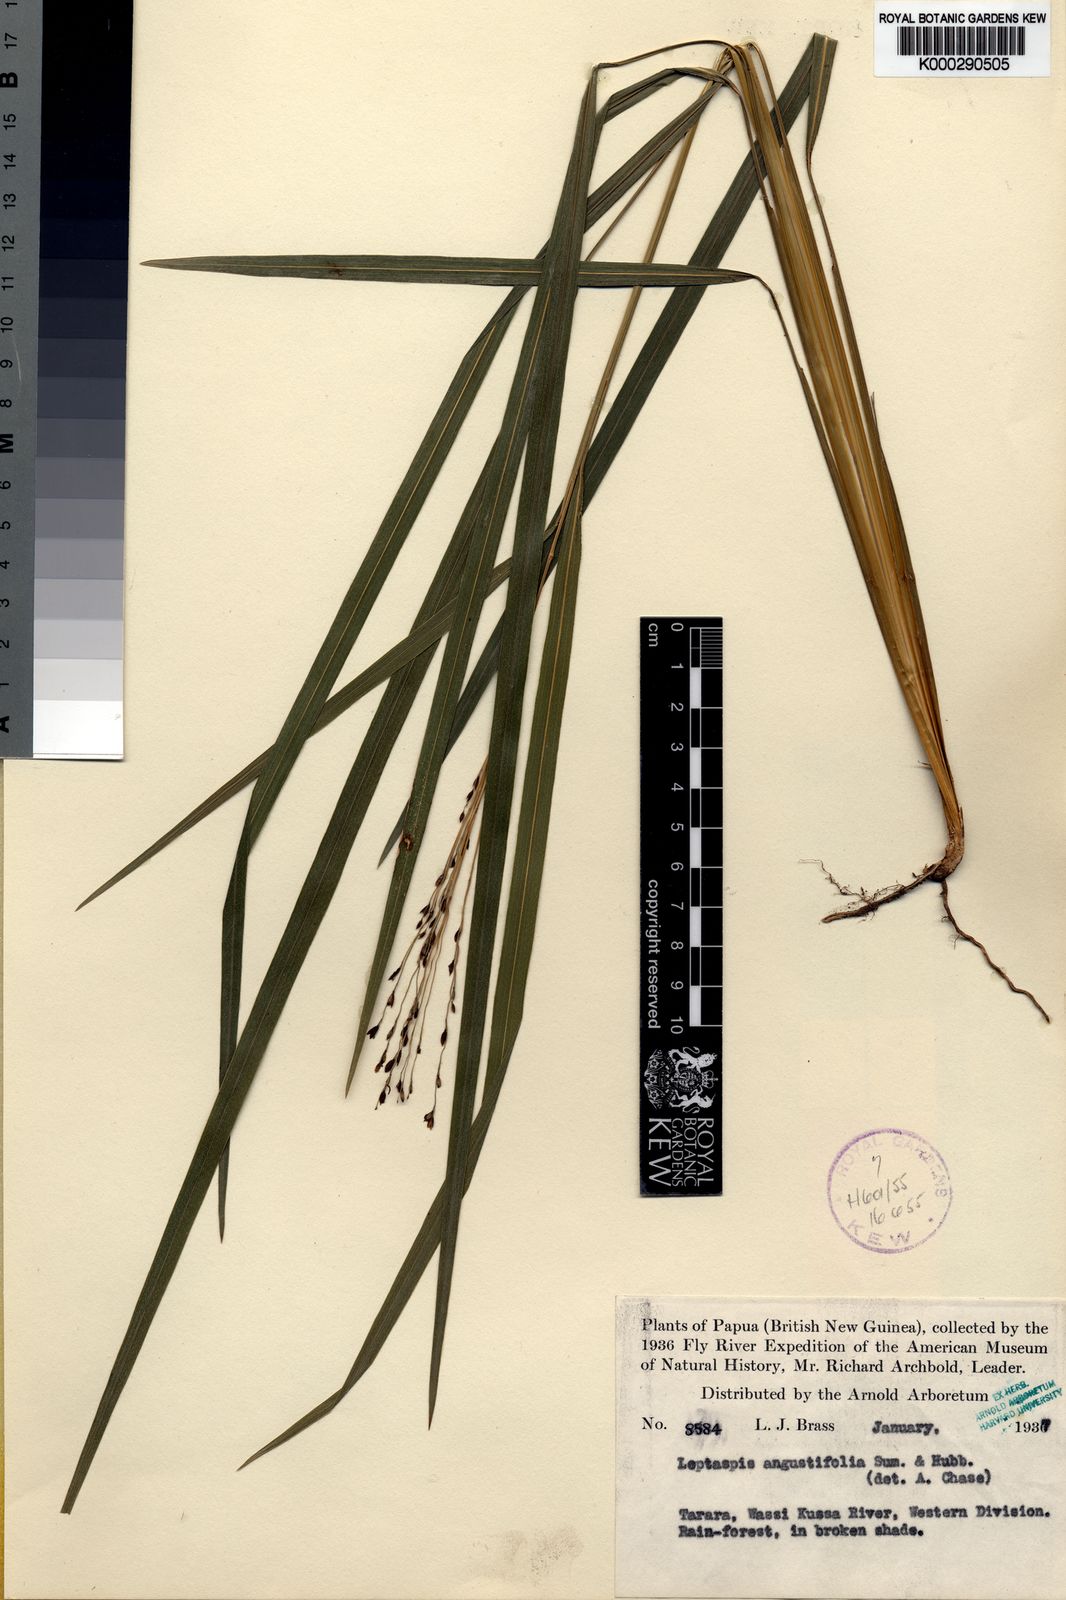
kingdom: Plantae
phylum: Tracheophyta
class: Liliopsida
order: Poales
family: Poaceae
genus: Scrotochloa
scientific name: Scrotochloa tararaensis
